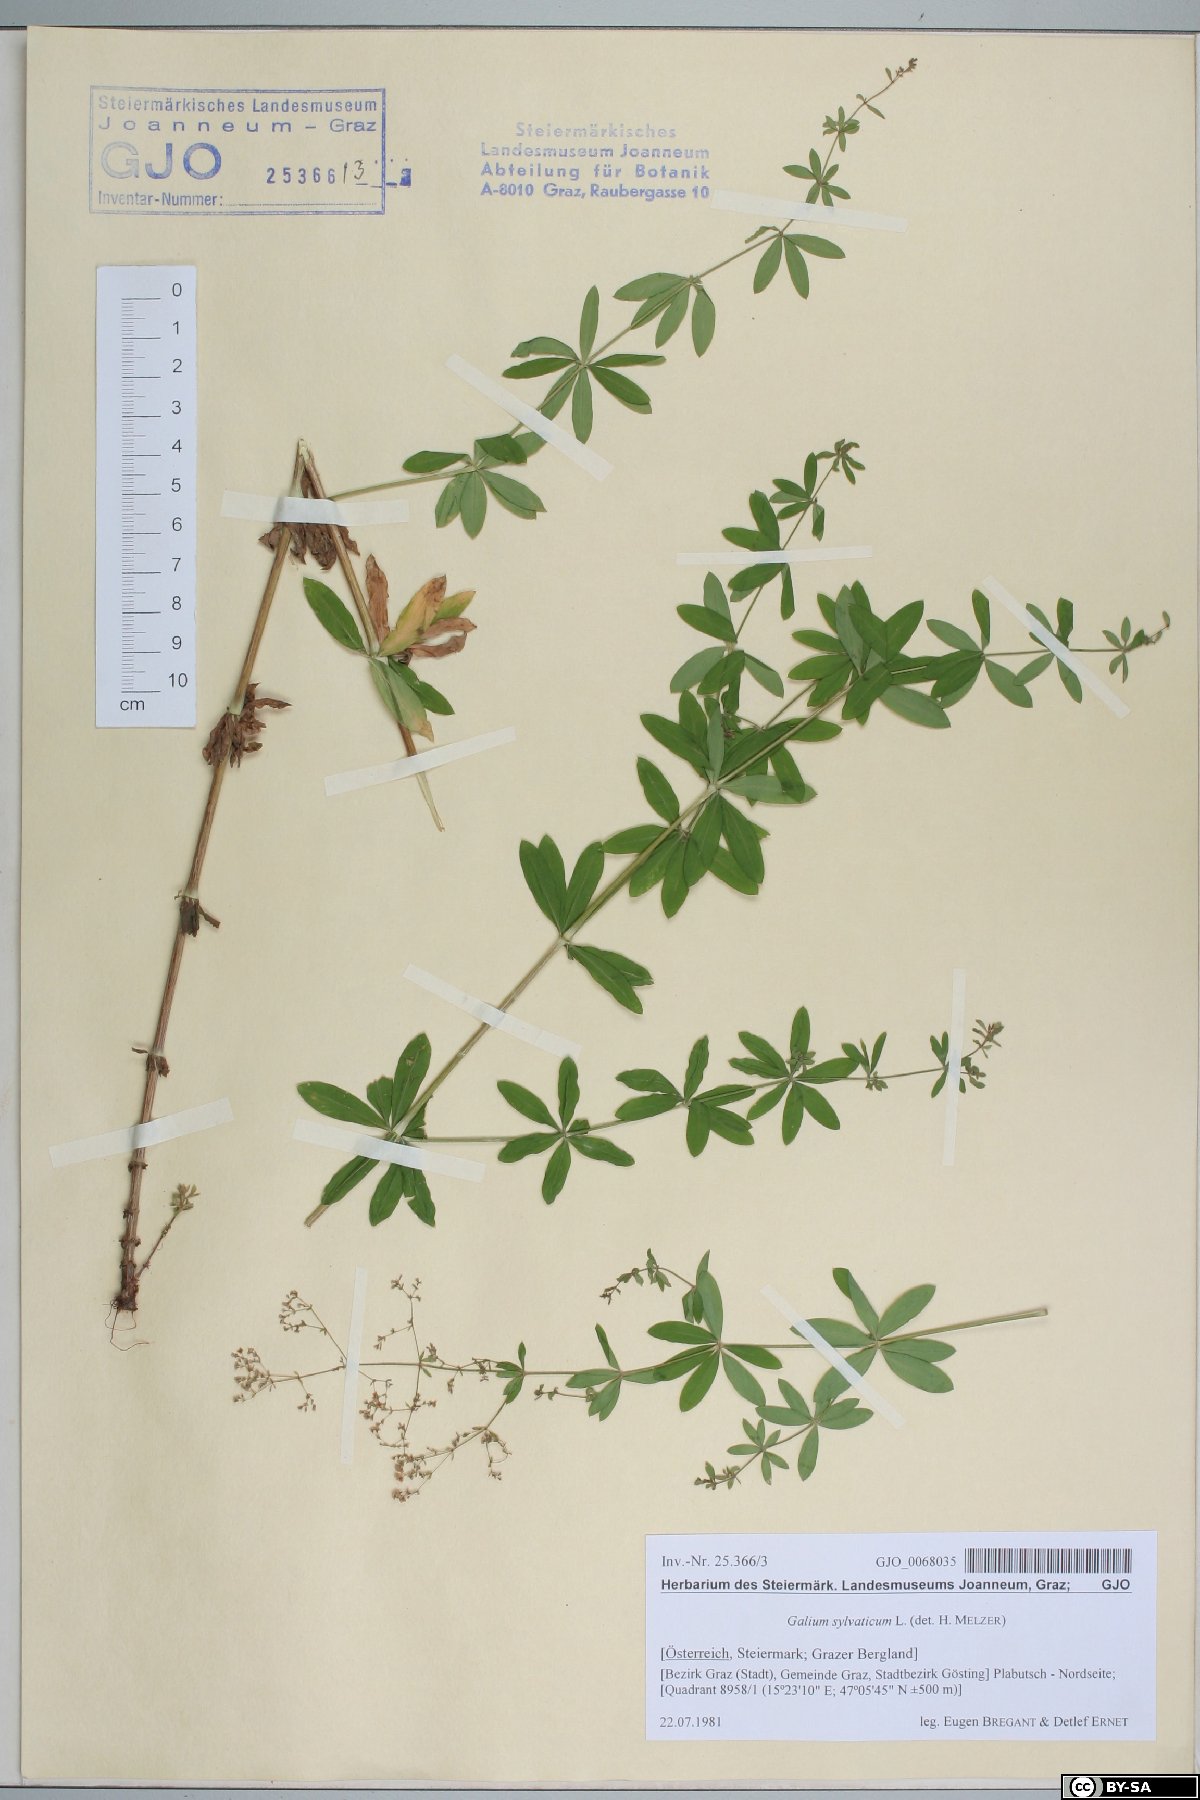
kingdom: Plantae
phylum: Tracheophyta
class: Magnoliopsida
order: Gentianales
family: Rubiaceae
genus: Galium
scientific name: Galium sylvaticum
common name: Wood bedstraw
